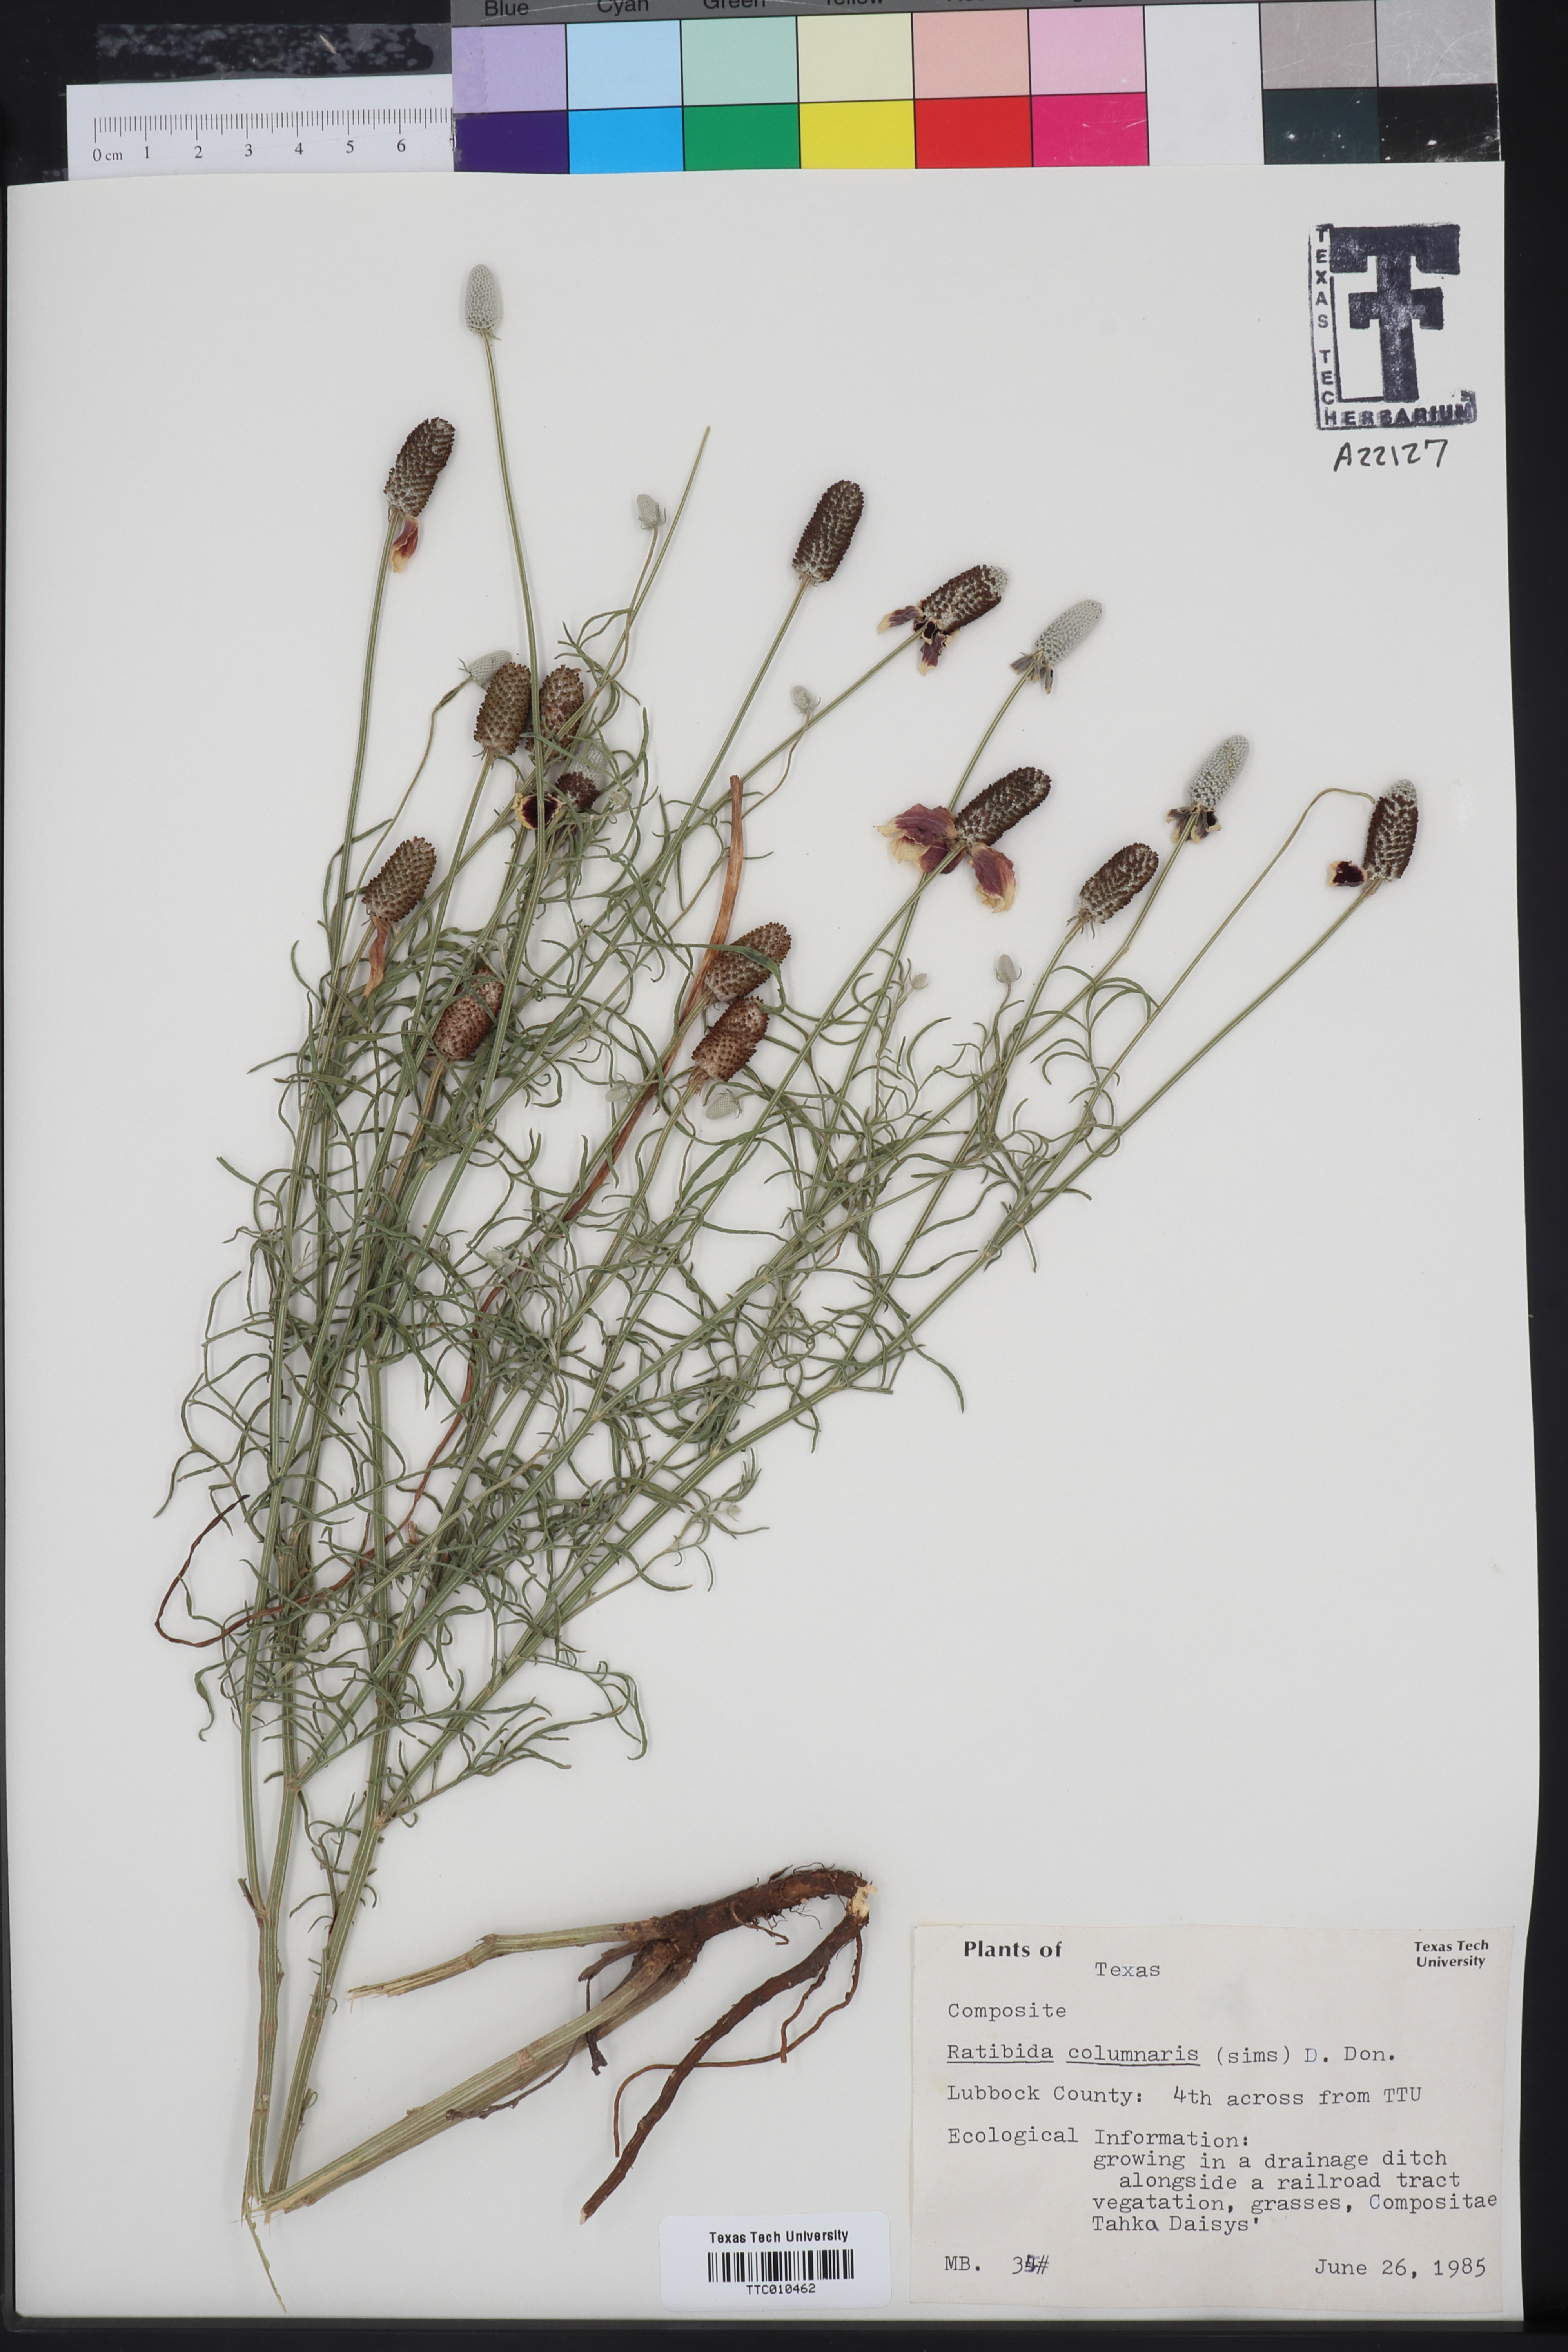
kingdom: Plantae
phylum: Tracheophyta
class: Magnoliopsida
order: Asterales
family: Asteraceae
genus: Ratibida
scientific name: Ratibida columnifera
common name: Prairie coneflower
